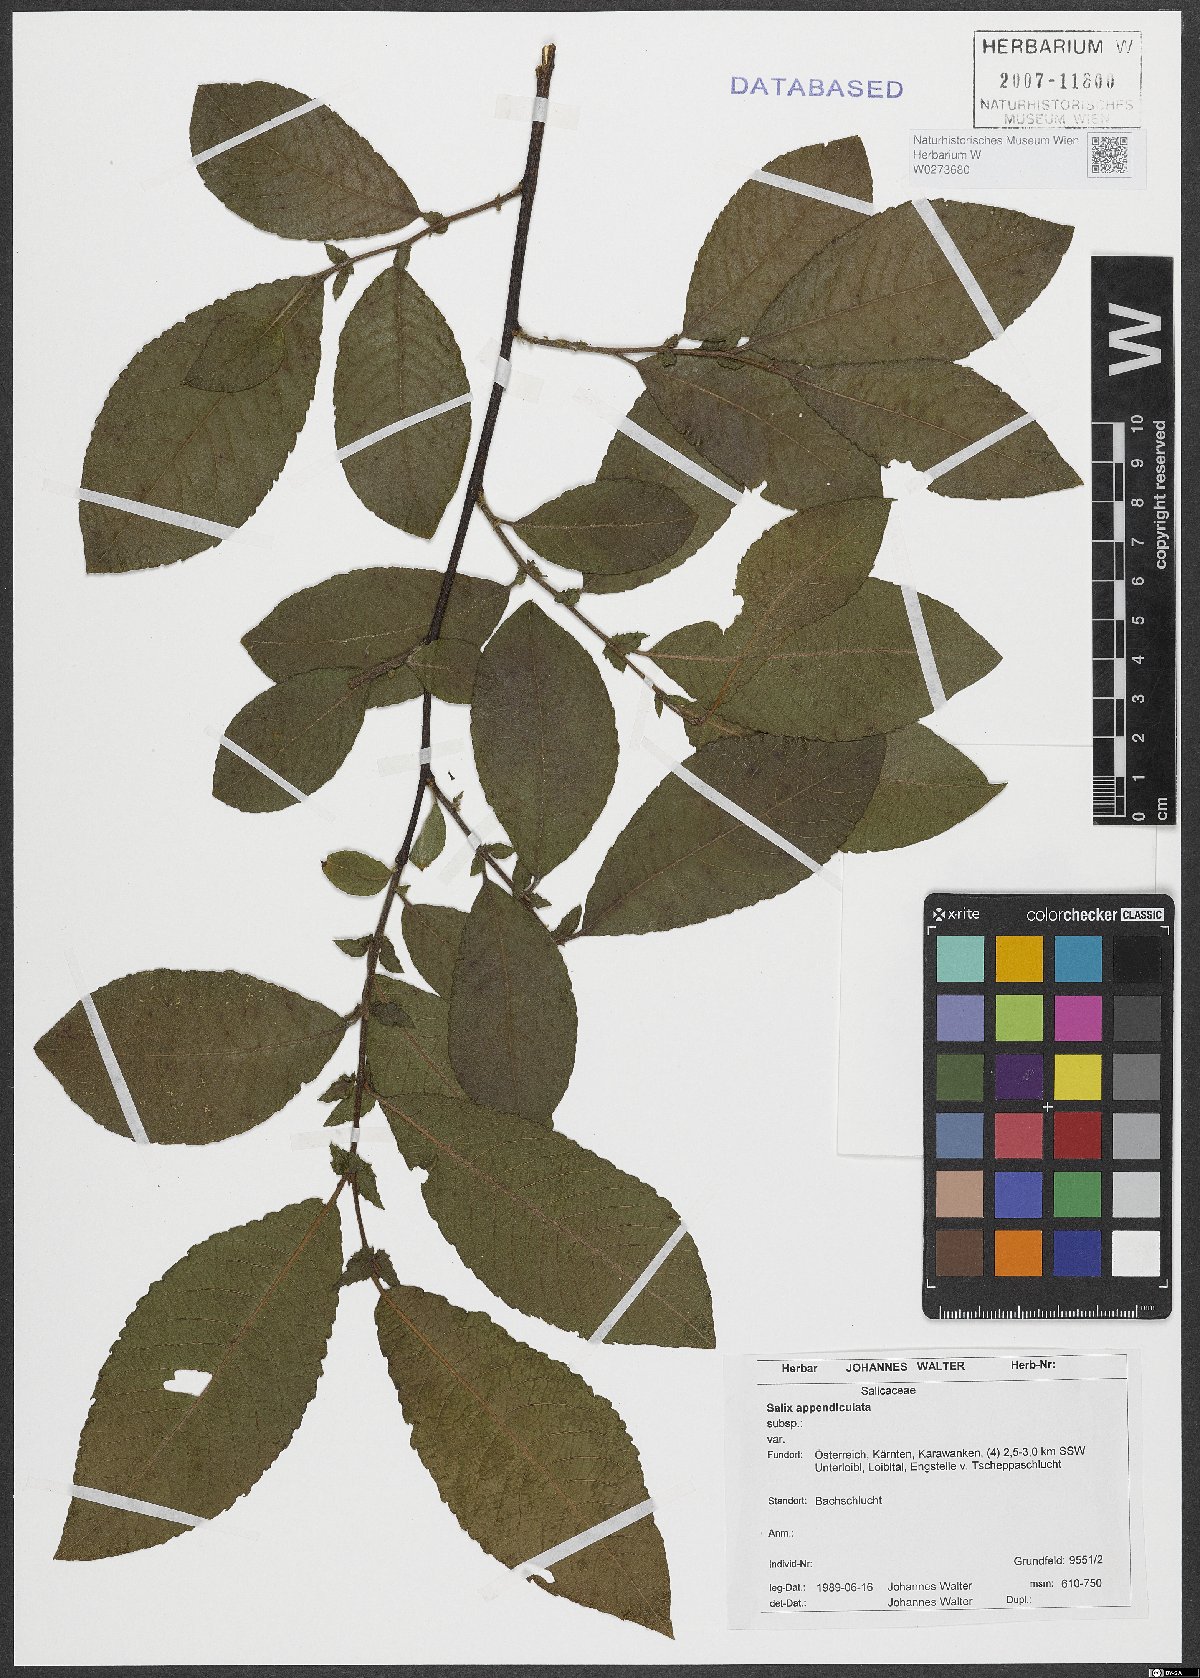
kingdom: Plantae
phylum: Tracheophyta
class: Magnoliopsida
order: Malpighiales
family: Salicaceae
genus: Salix
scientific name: Salix appendiculata
